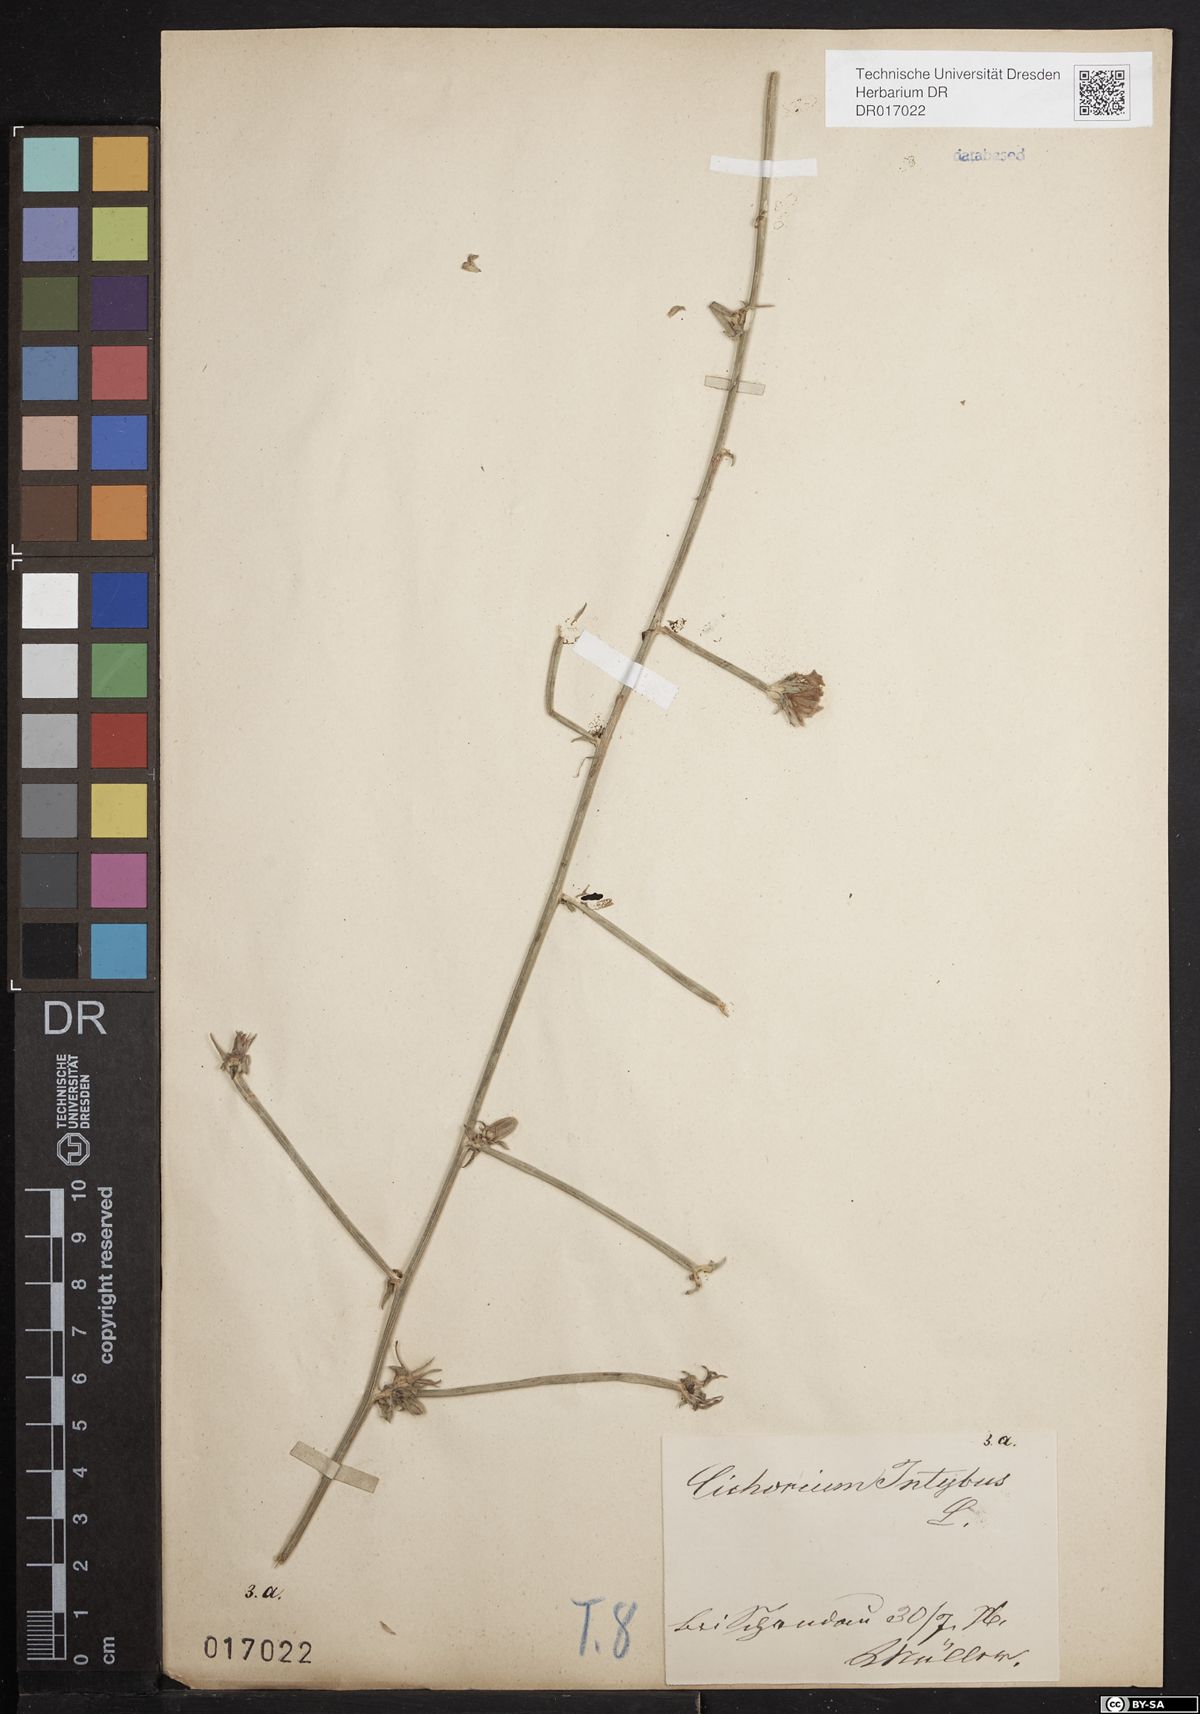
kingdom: Plantae
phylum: Tracheophyta
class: Magnoliopsida
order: Asterales
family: Asteraceae
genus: Cichorium
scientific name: Cichorium intybus
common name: Chicory
